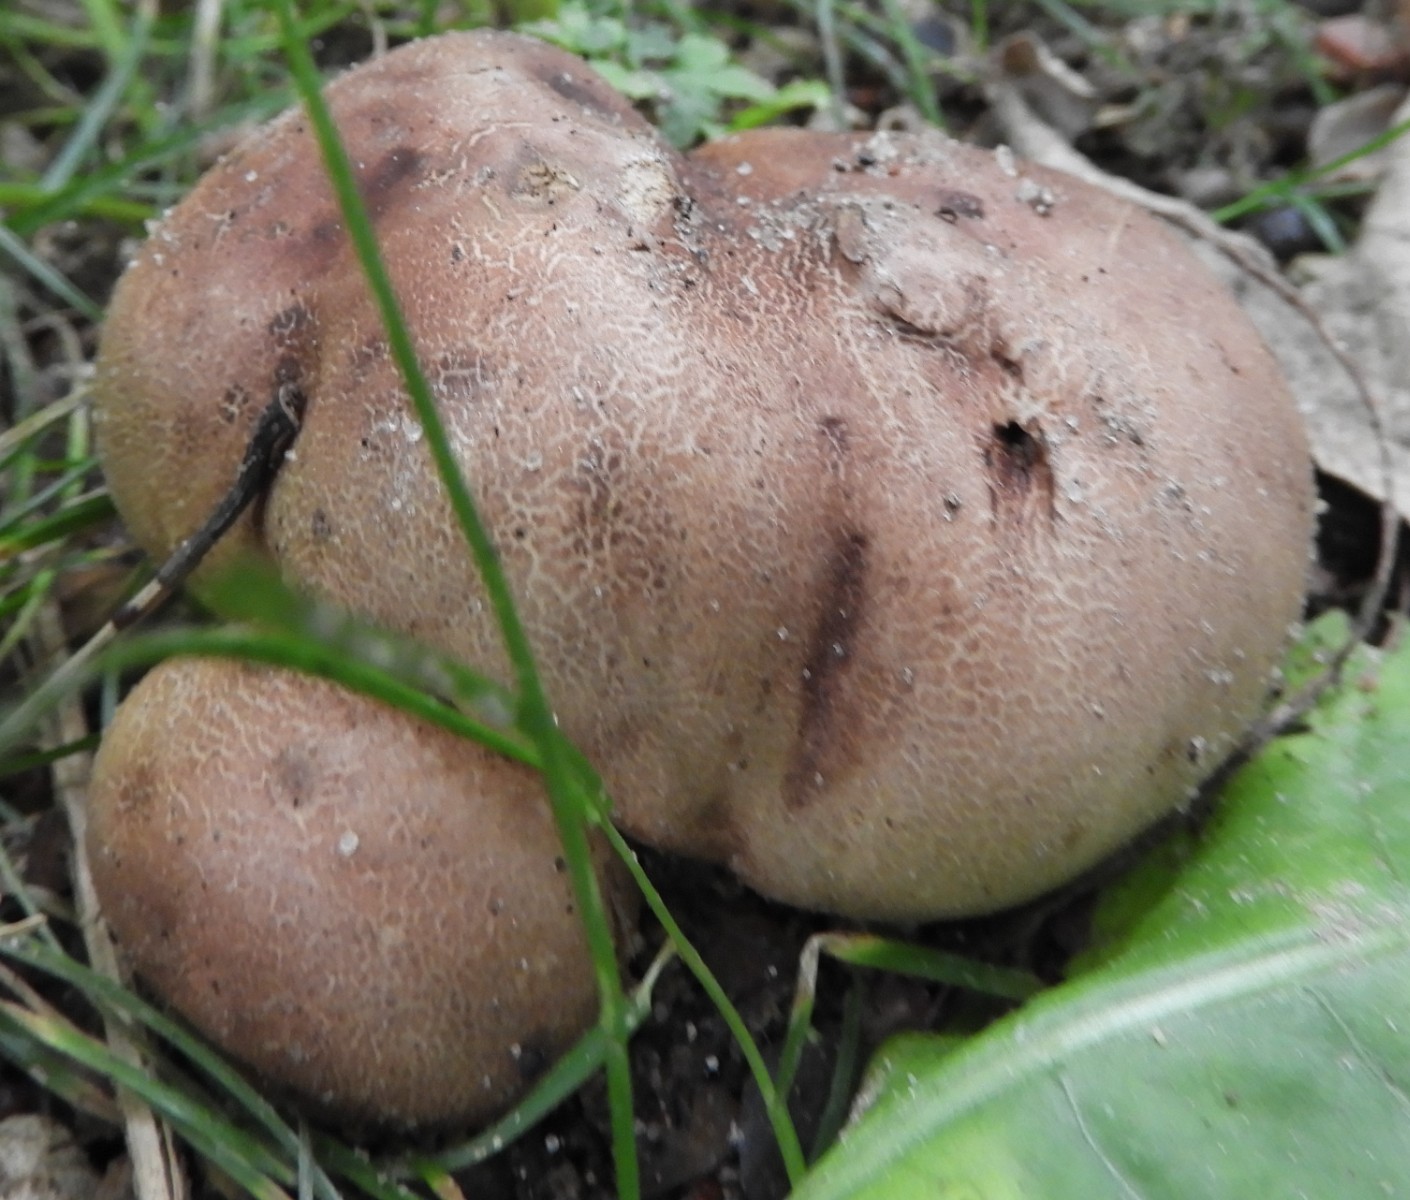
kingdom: Fungi
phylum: Basidiomycota
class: Agaricomycetes
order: Boletales
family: Sclerodermataceae
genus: Scleroderma
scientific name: Scleroderma citrinum
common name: almindelig bruskbold
